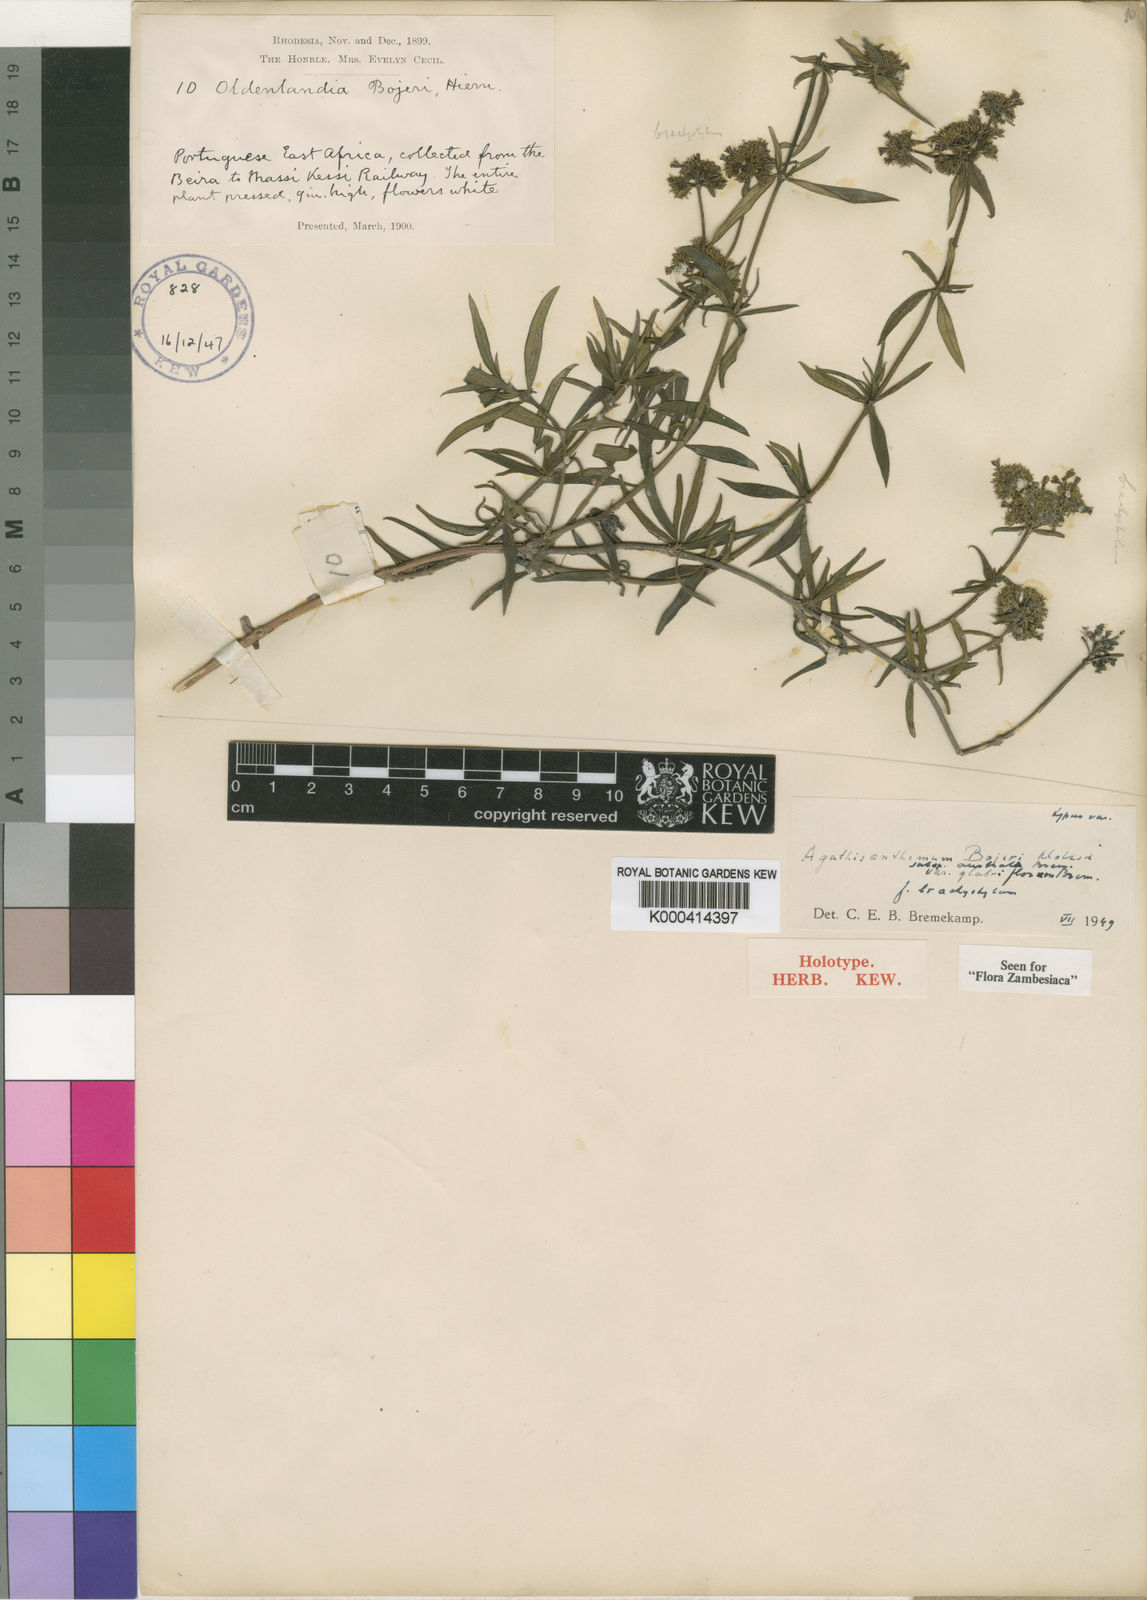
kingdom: Plantae
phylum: Tracheophyta
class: Magnoliopsida
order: Gentianales
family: Rubiaceae
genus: Agathisanthemum
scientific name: Agathisanthemum bojeri
